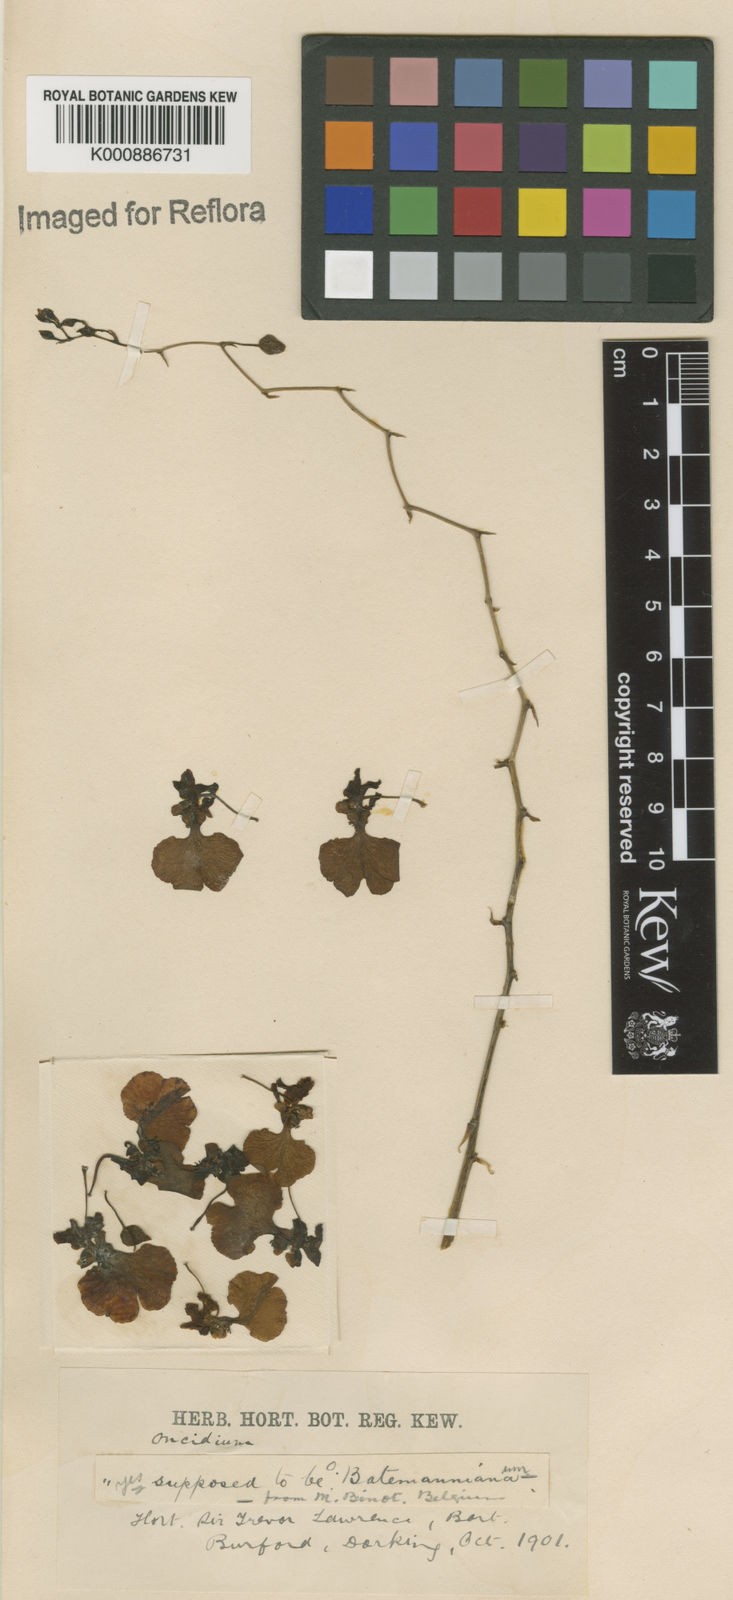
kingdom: Plantae
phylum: Tracheophyta
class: Liliopsida
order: Asparagales
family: Orchidaceae
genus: Gomesa
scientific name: Gomesa ramosa
